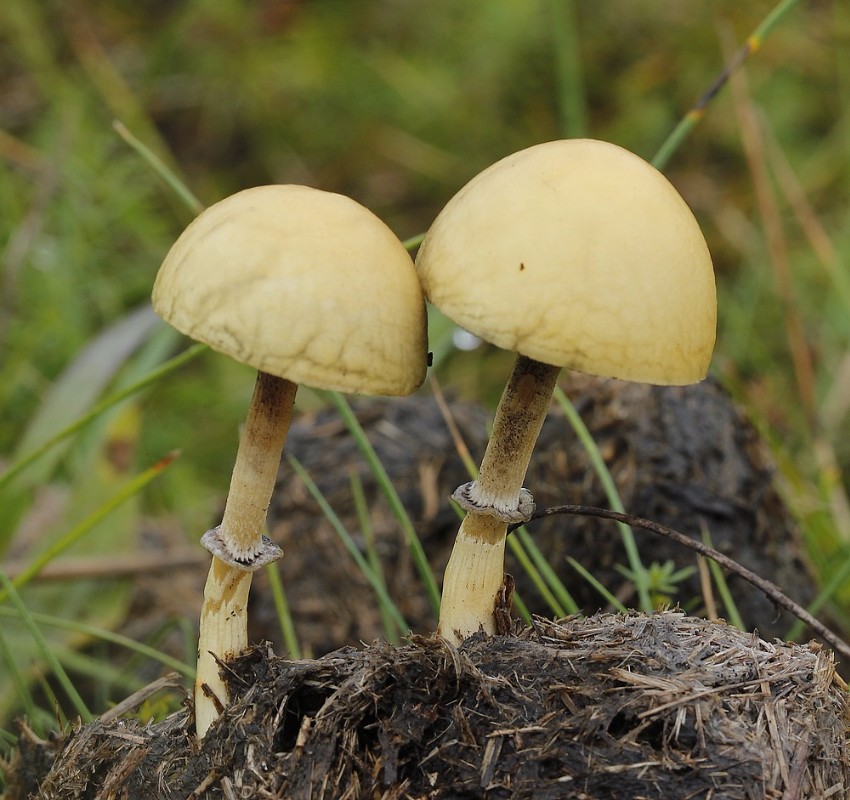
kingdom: Fungi
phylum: Basidiomycota
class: Agaricomycetes
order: Agaricales
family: Bolbitiaceae
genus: Panaeolus
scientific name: Panaeolus semiovatus
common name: ring-glanshat
